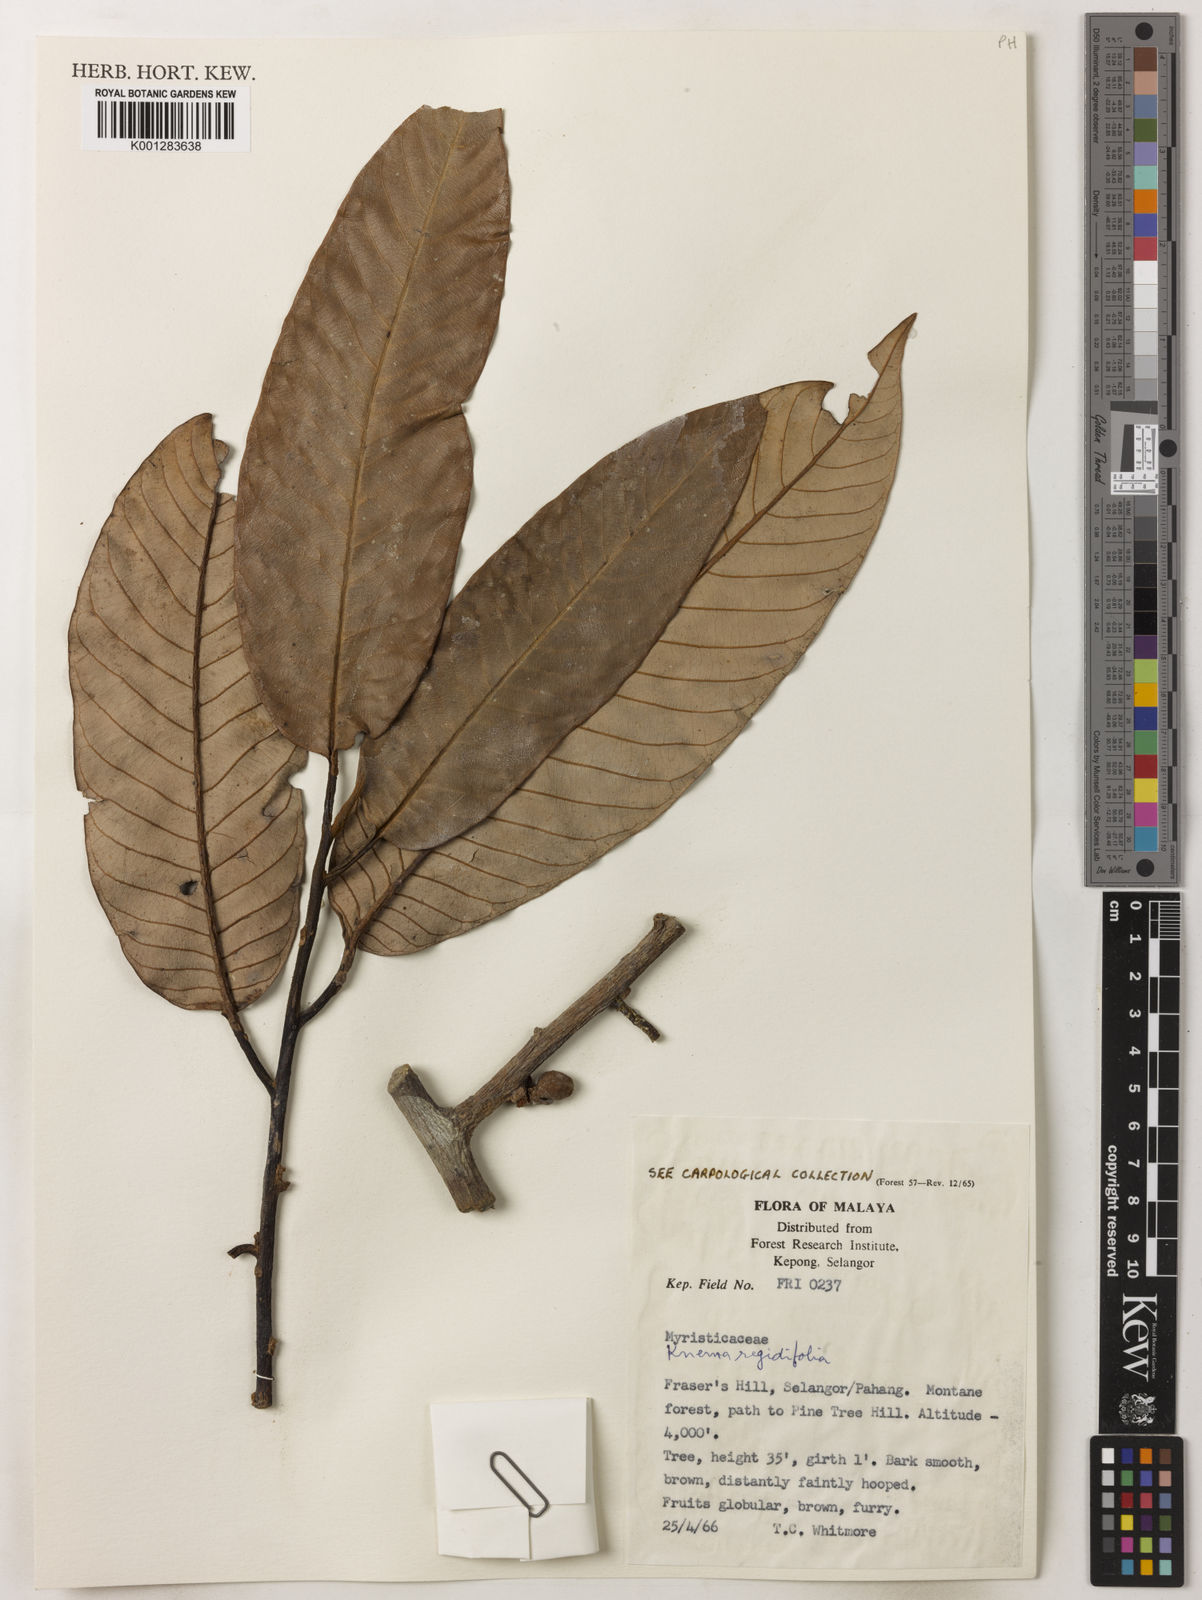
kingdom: Plantae
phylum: Tracheophyta
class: Magnoliopsida
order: Magnoliales
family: Myristicaceae
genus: Knema
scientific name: Knema rigidifolia
